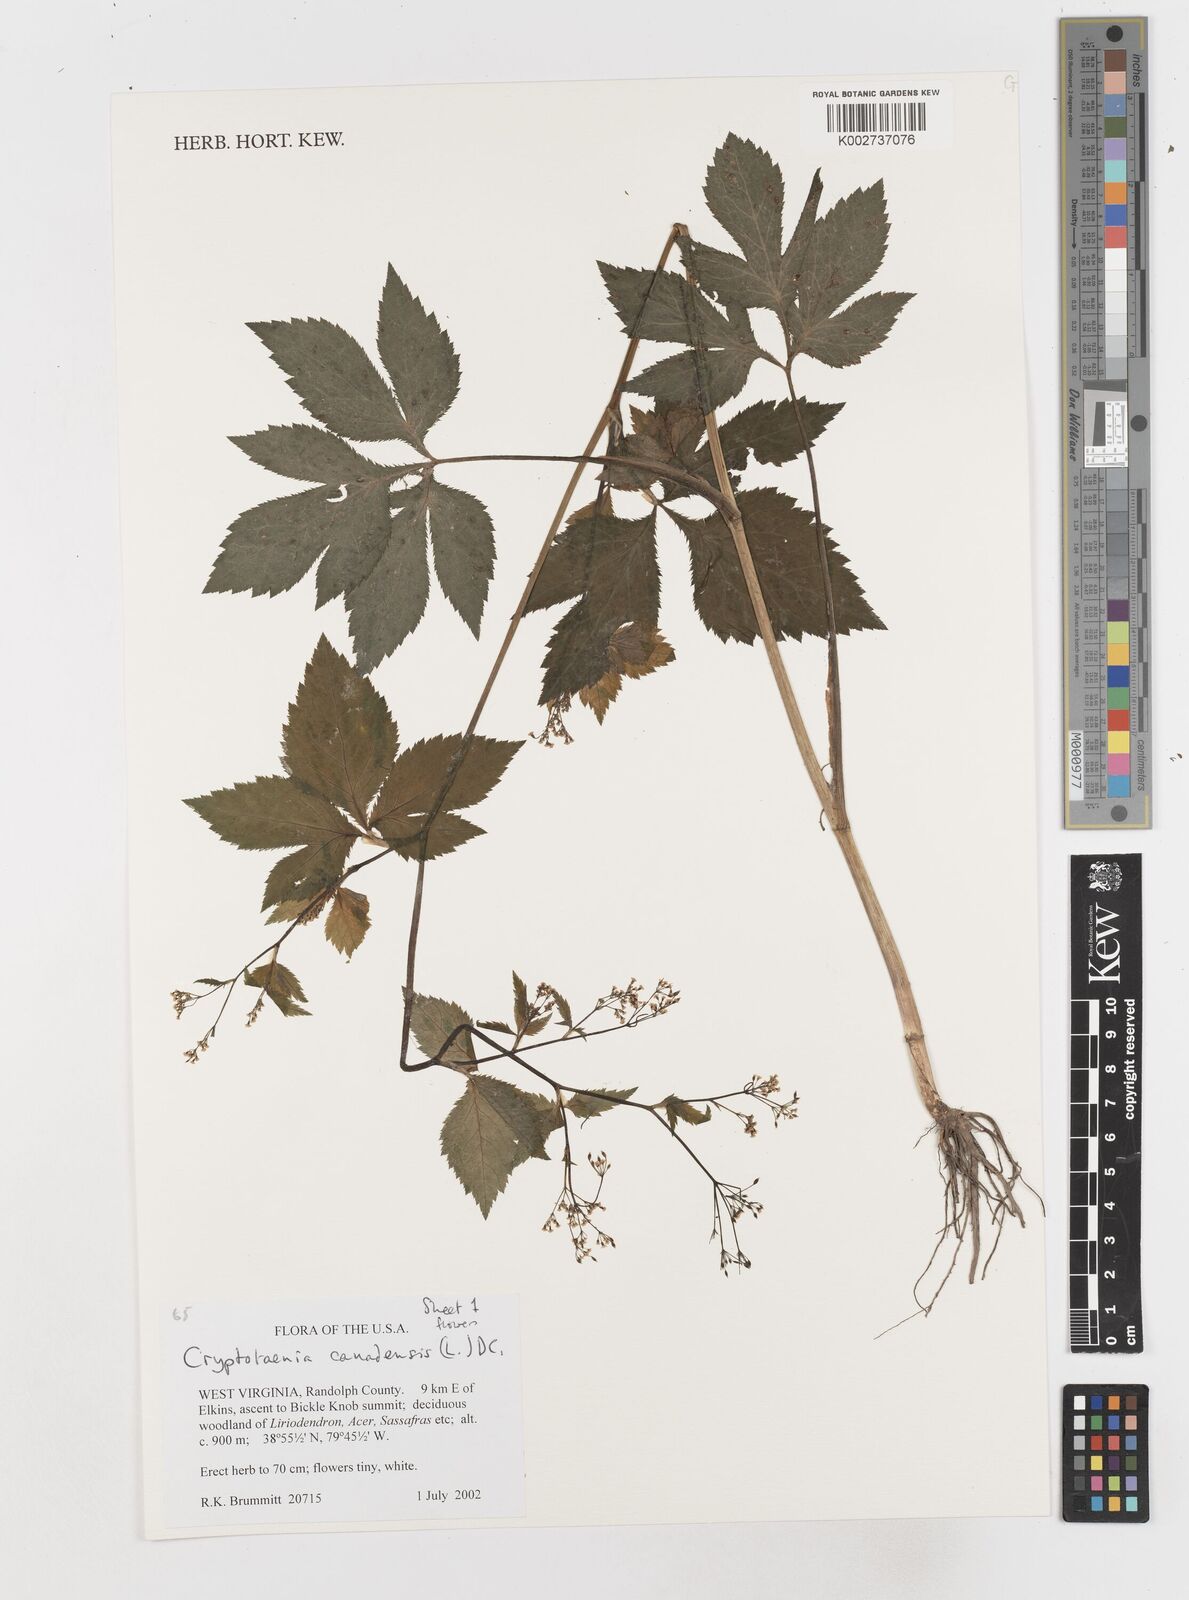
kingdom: Plantae
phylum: Tracheophyta
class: Magnoliopsida
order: Apiales
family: Apiaceae
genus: Cryptotaenia
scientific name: Cryptotaenia canadensis
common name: Honewort
